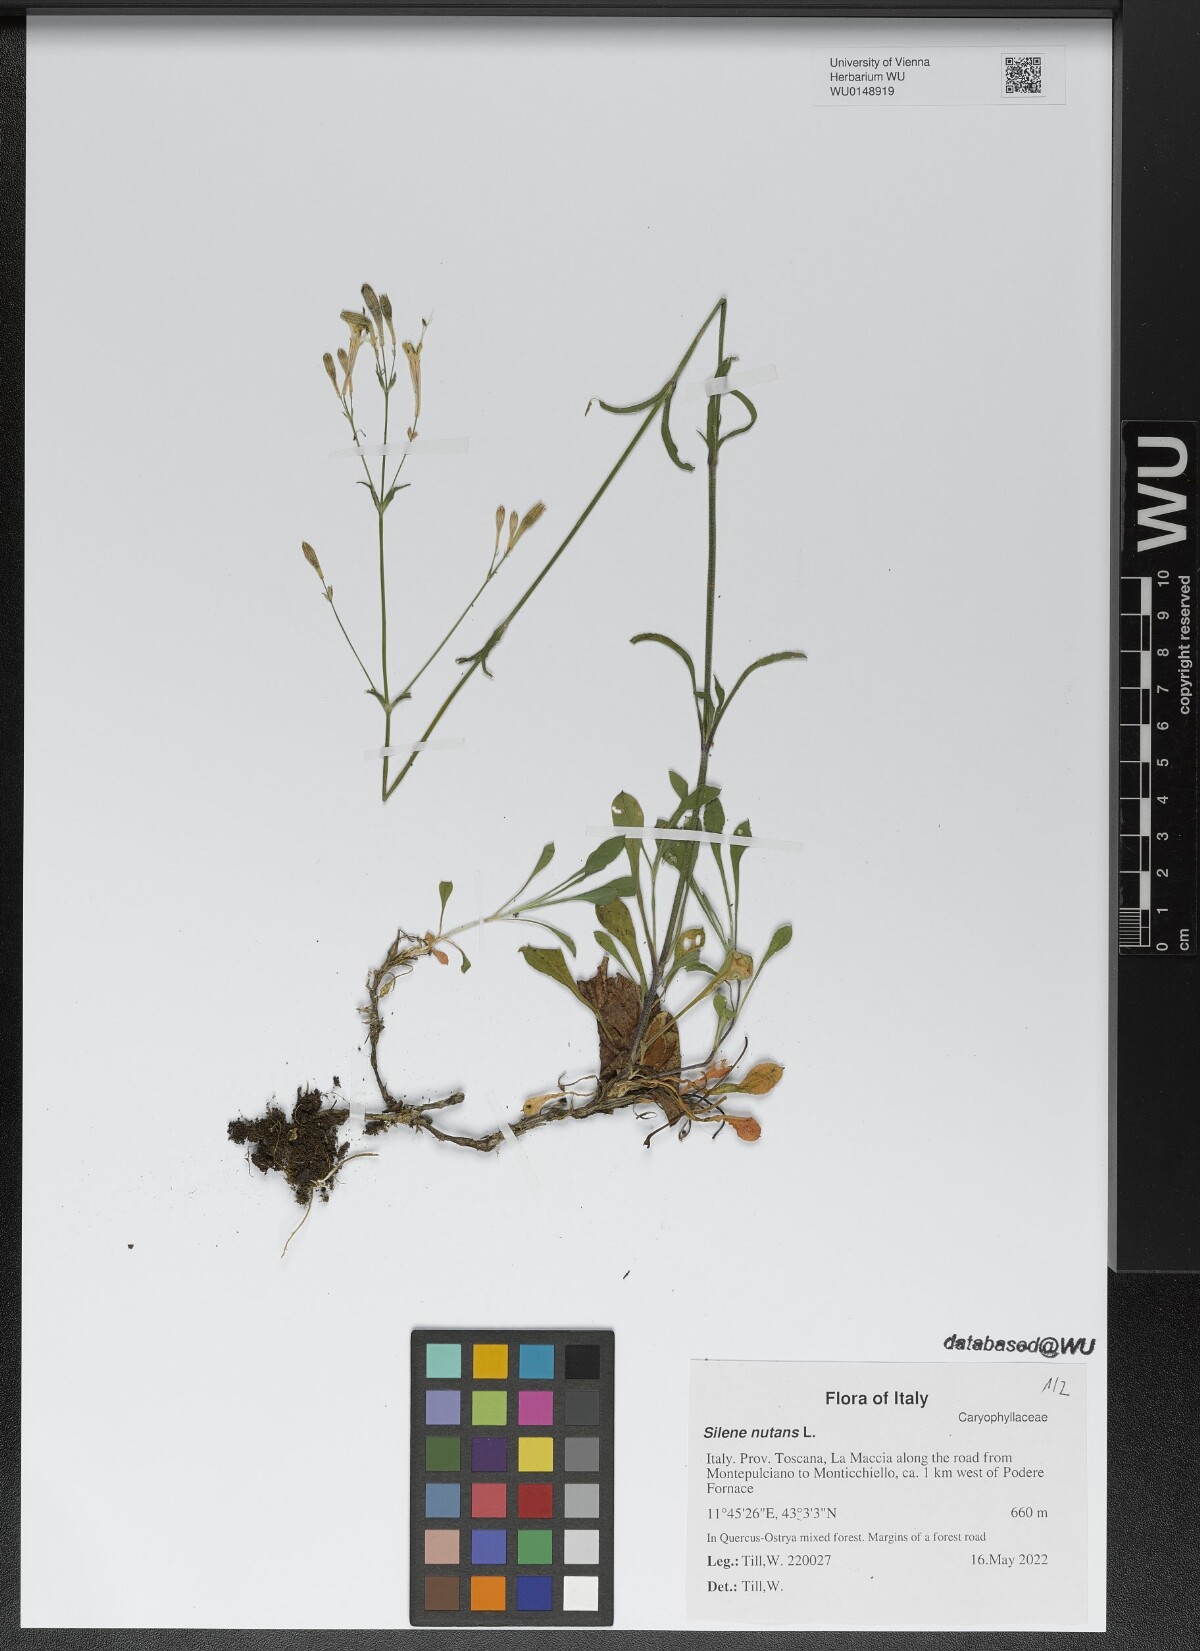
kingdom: Plantae
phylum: Tracheophyta
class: Magnoliopsida
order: Caryophyllales
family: Caryophyllaceae
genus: Silene
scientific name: Silene nutans
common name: Nottingham catchfly
